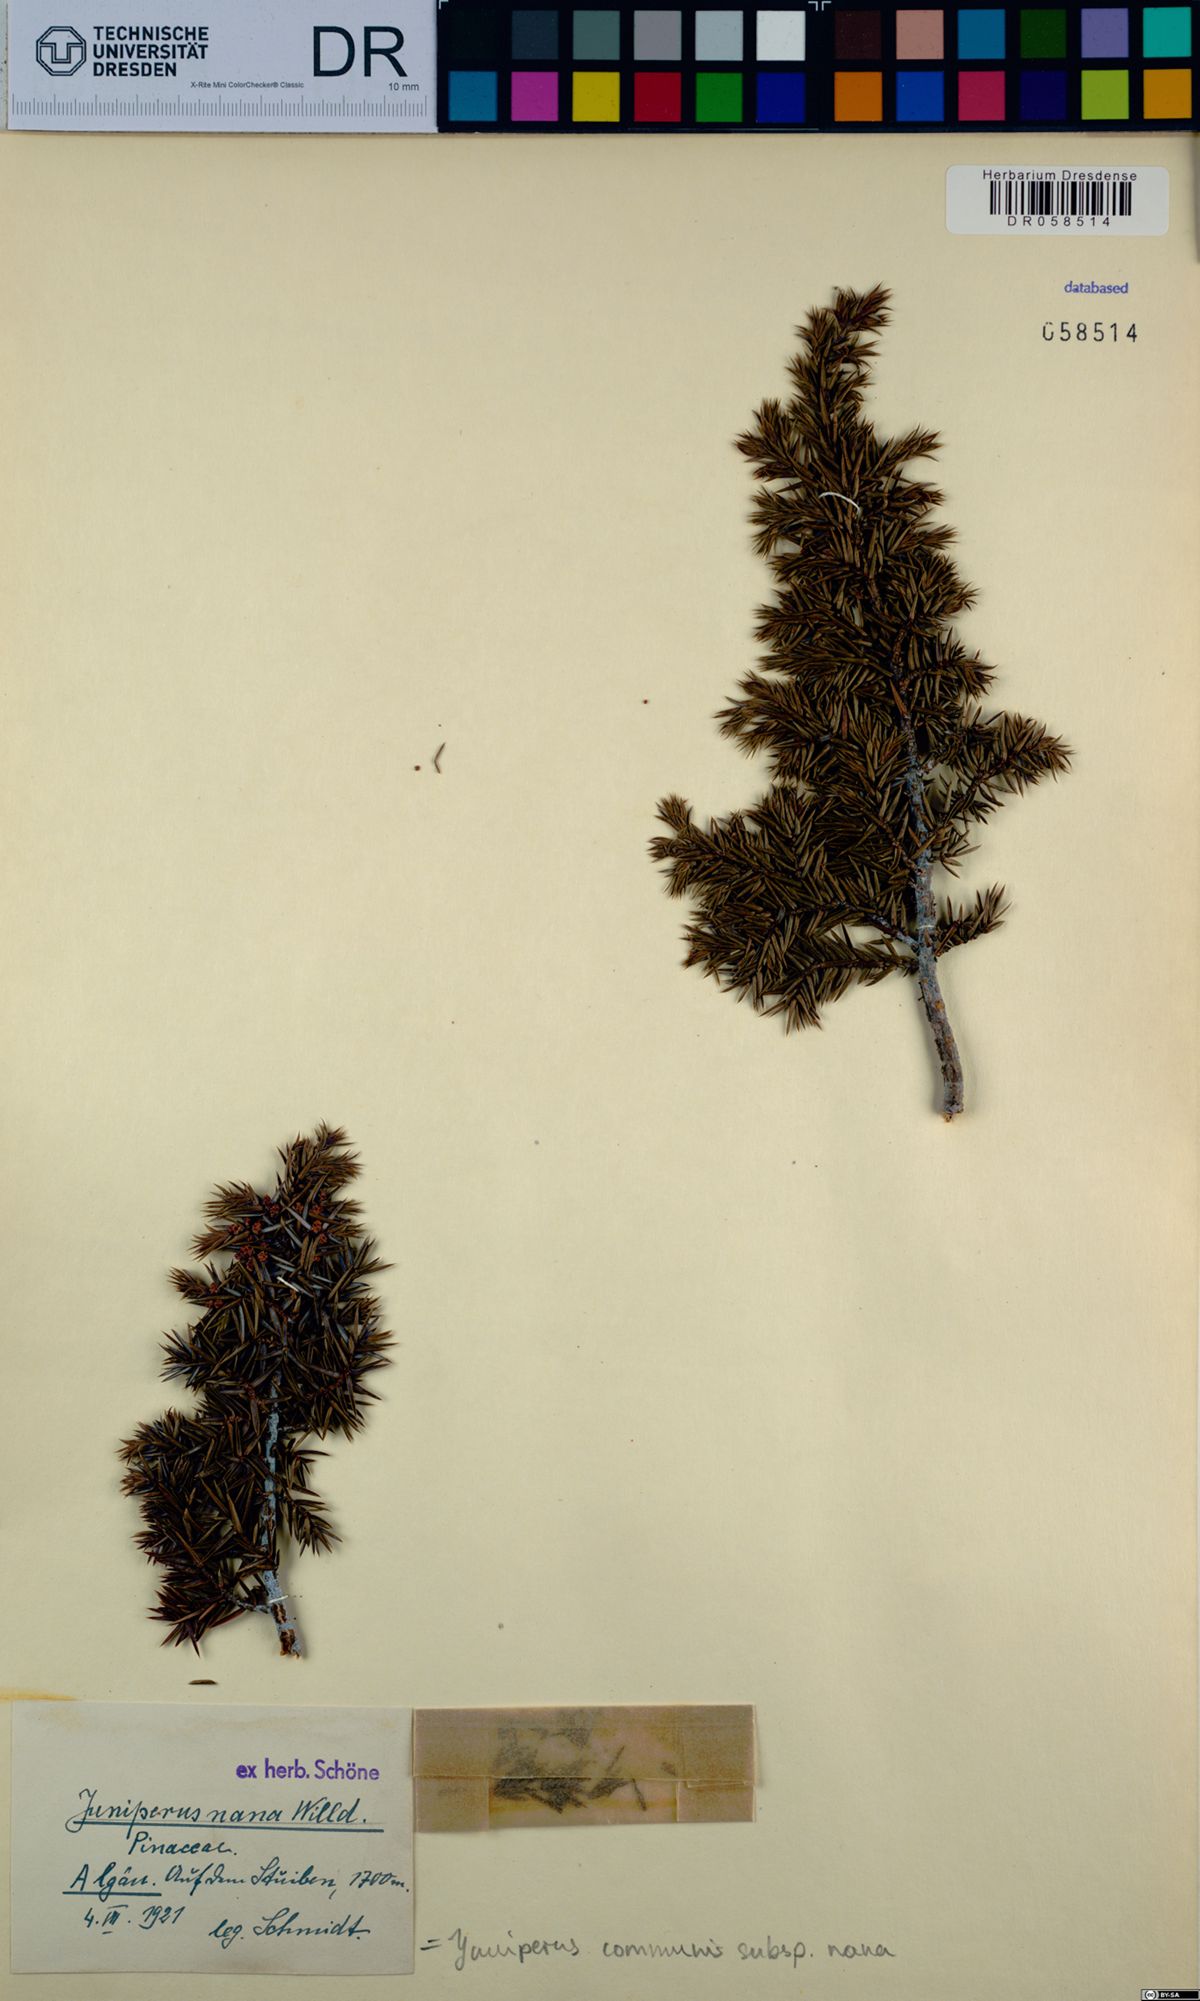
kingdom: Plantae
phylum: Tracheophyta
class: Pinopsida
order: Pinales
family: Cupressaceae
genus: Juniperus
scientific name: Juniperus communis
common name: Common juniper
